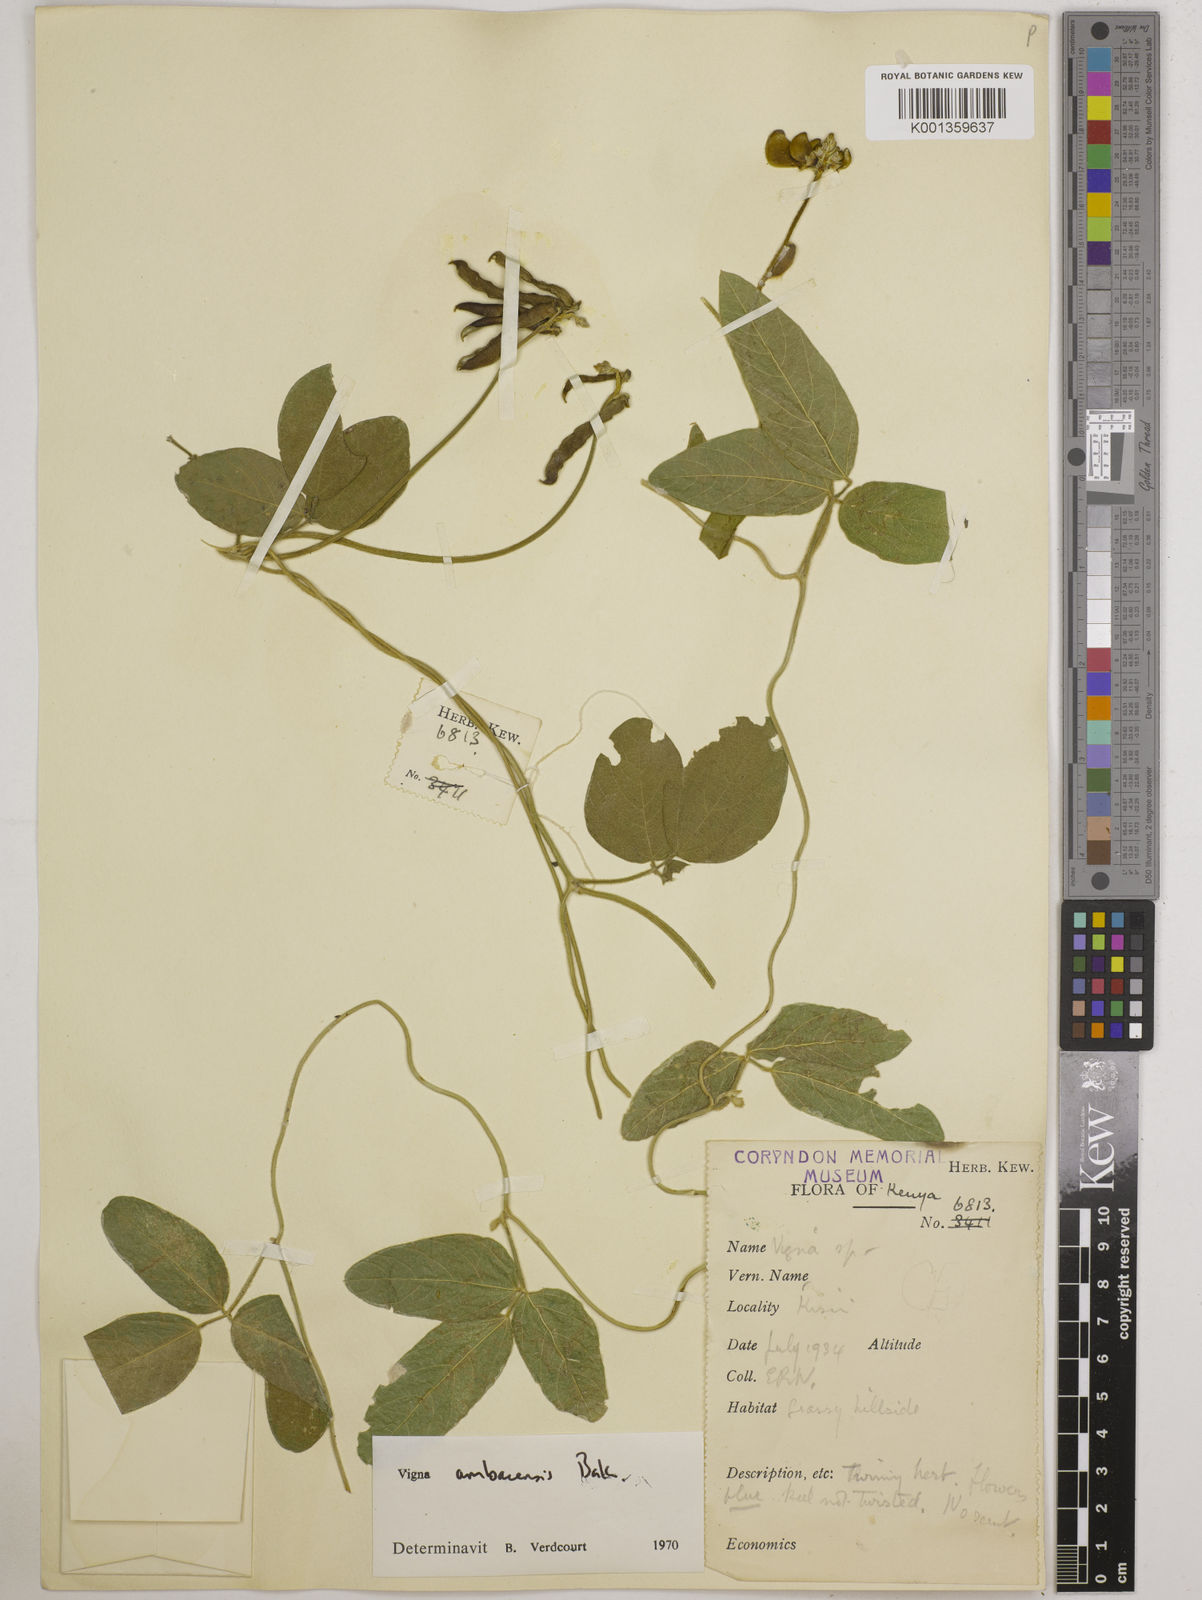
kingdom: Plantae
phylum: Tracheophyta
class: Magnoliopsida
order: Fabales
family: Fabaceae
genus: Vigna
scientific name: Vigna ambacensis
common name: Tsarkiyan zomo
